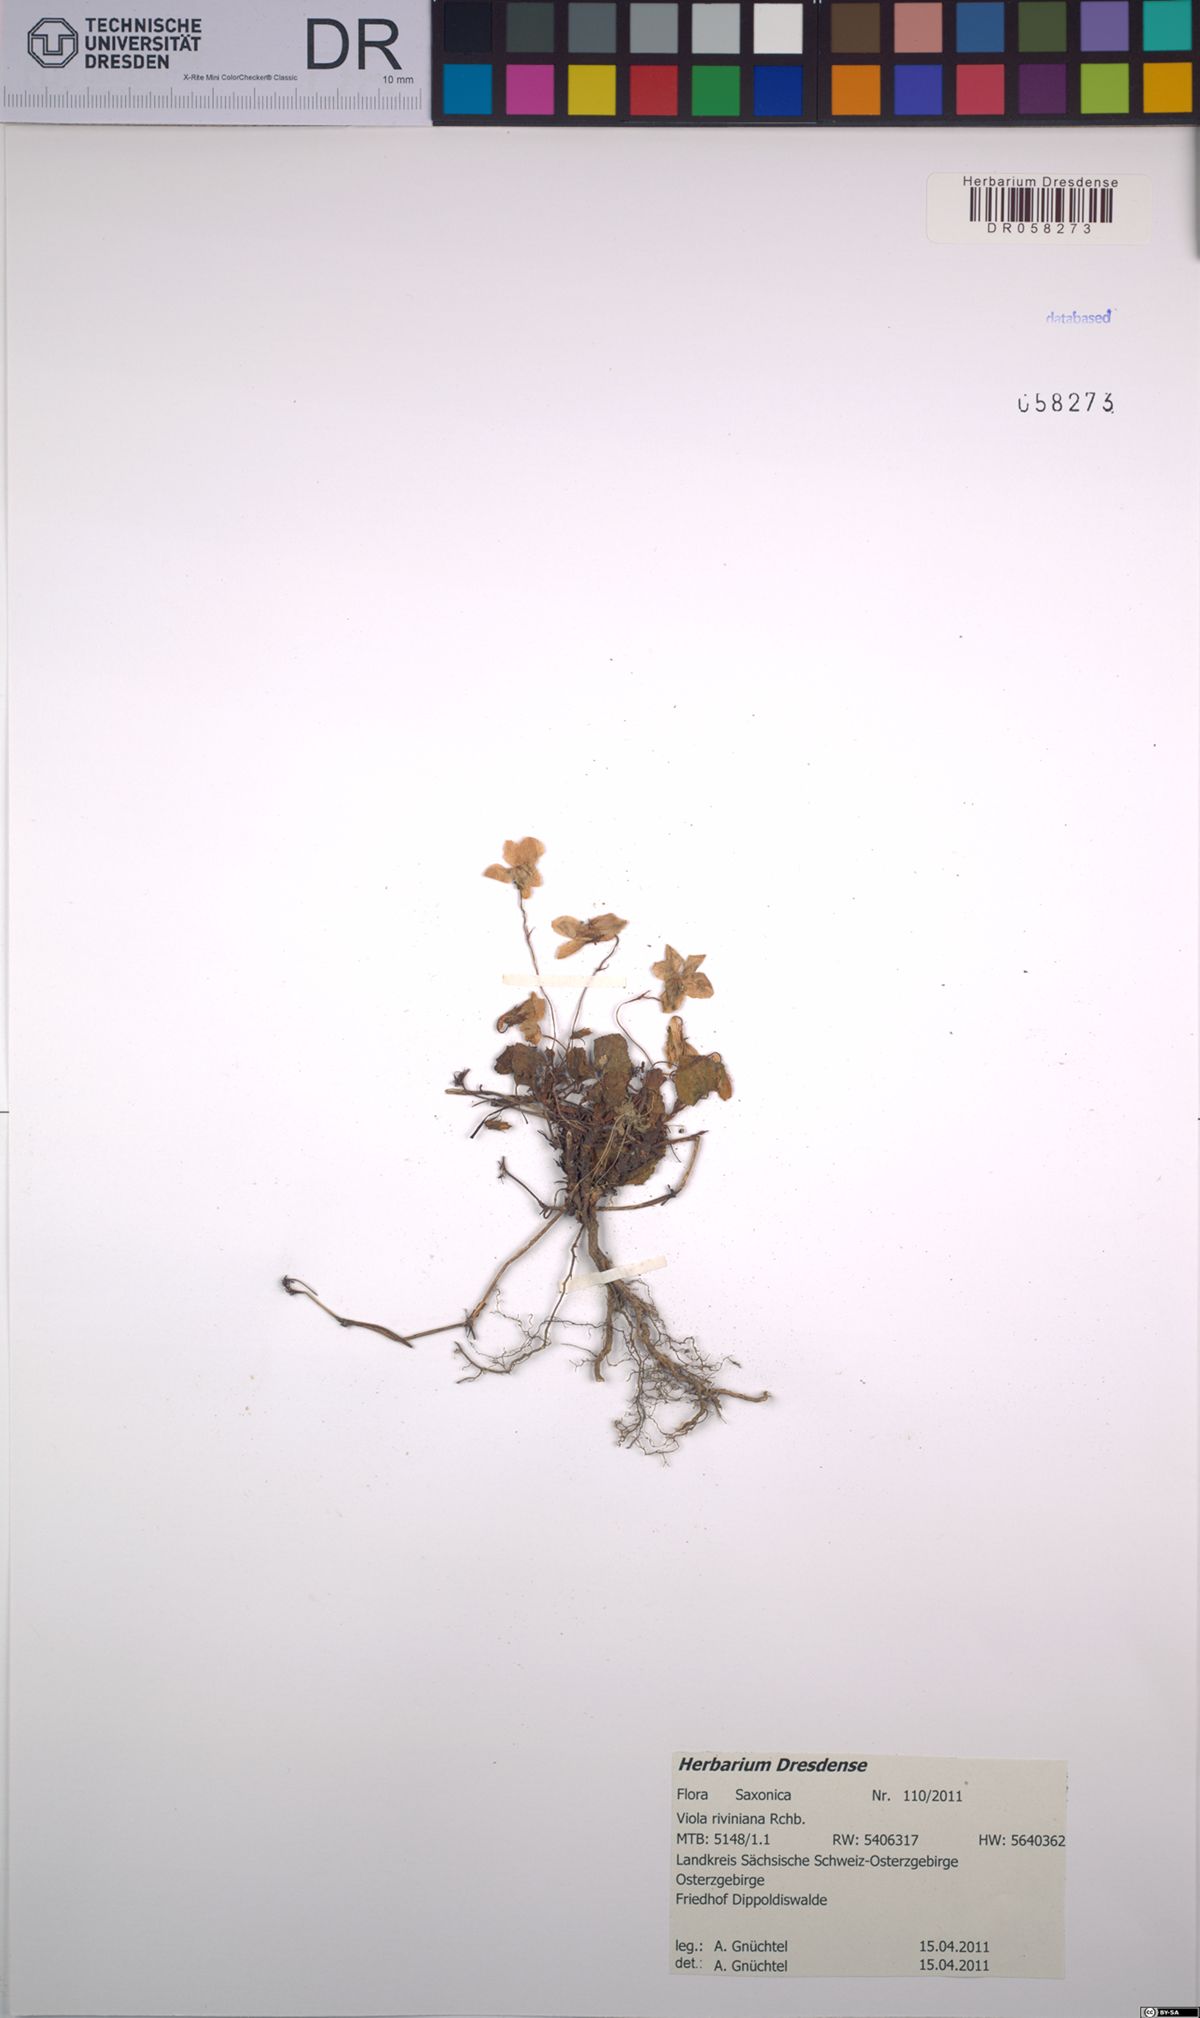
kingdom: Plantae
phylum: Tracheophyta
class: Magnoliopsida
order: Malpighiales
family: Violaceae
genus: Viola
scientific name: Viola riviniana
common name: Common dog-violet
